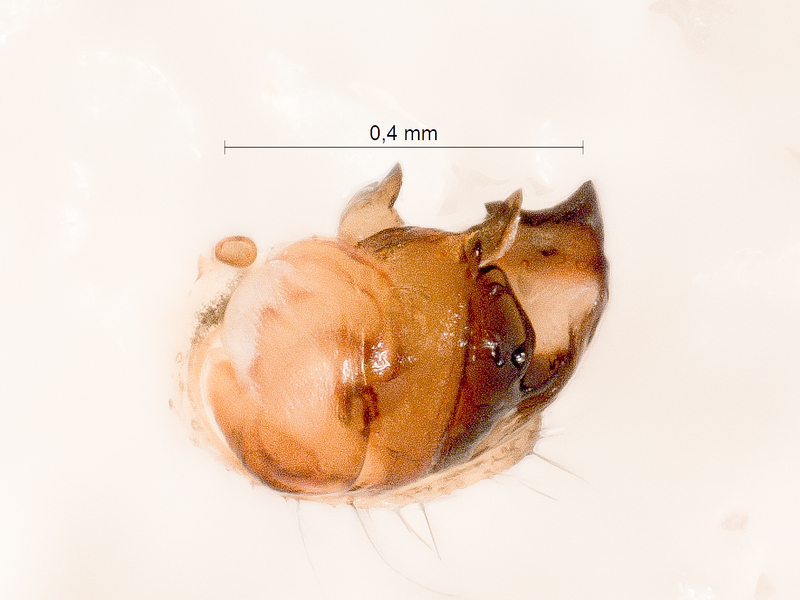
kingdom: Animalia
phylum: Arthropoda
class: Arachnida
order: Araneae
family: Araneidae
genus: Mangora
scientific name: Mangora acalypha
